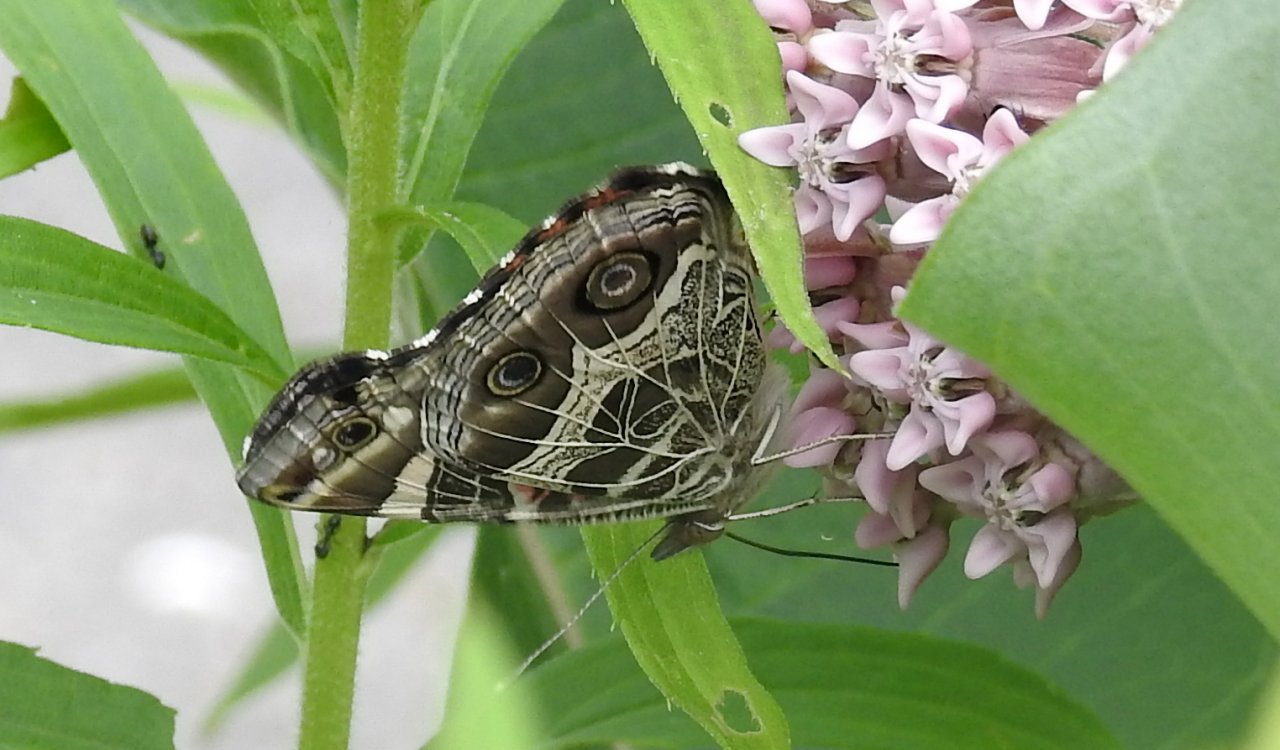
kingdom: Animalia
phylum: Arthropoda
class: Insecta
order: Lepidoptera
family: Nymphalidae
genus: Vanessa
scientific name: Vanessa virginiensis
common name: American Lady
